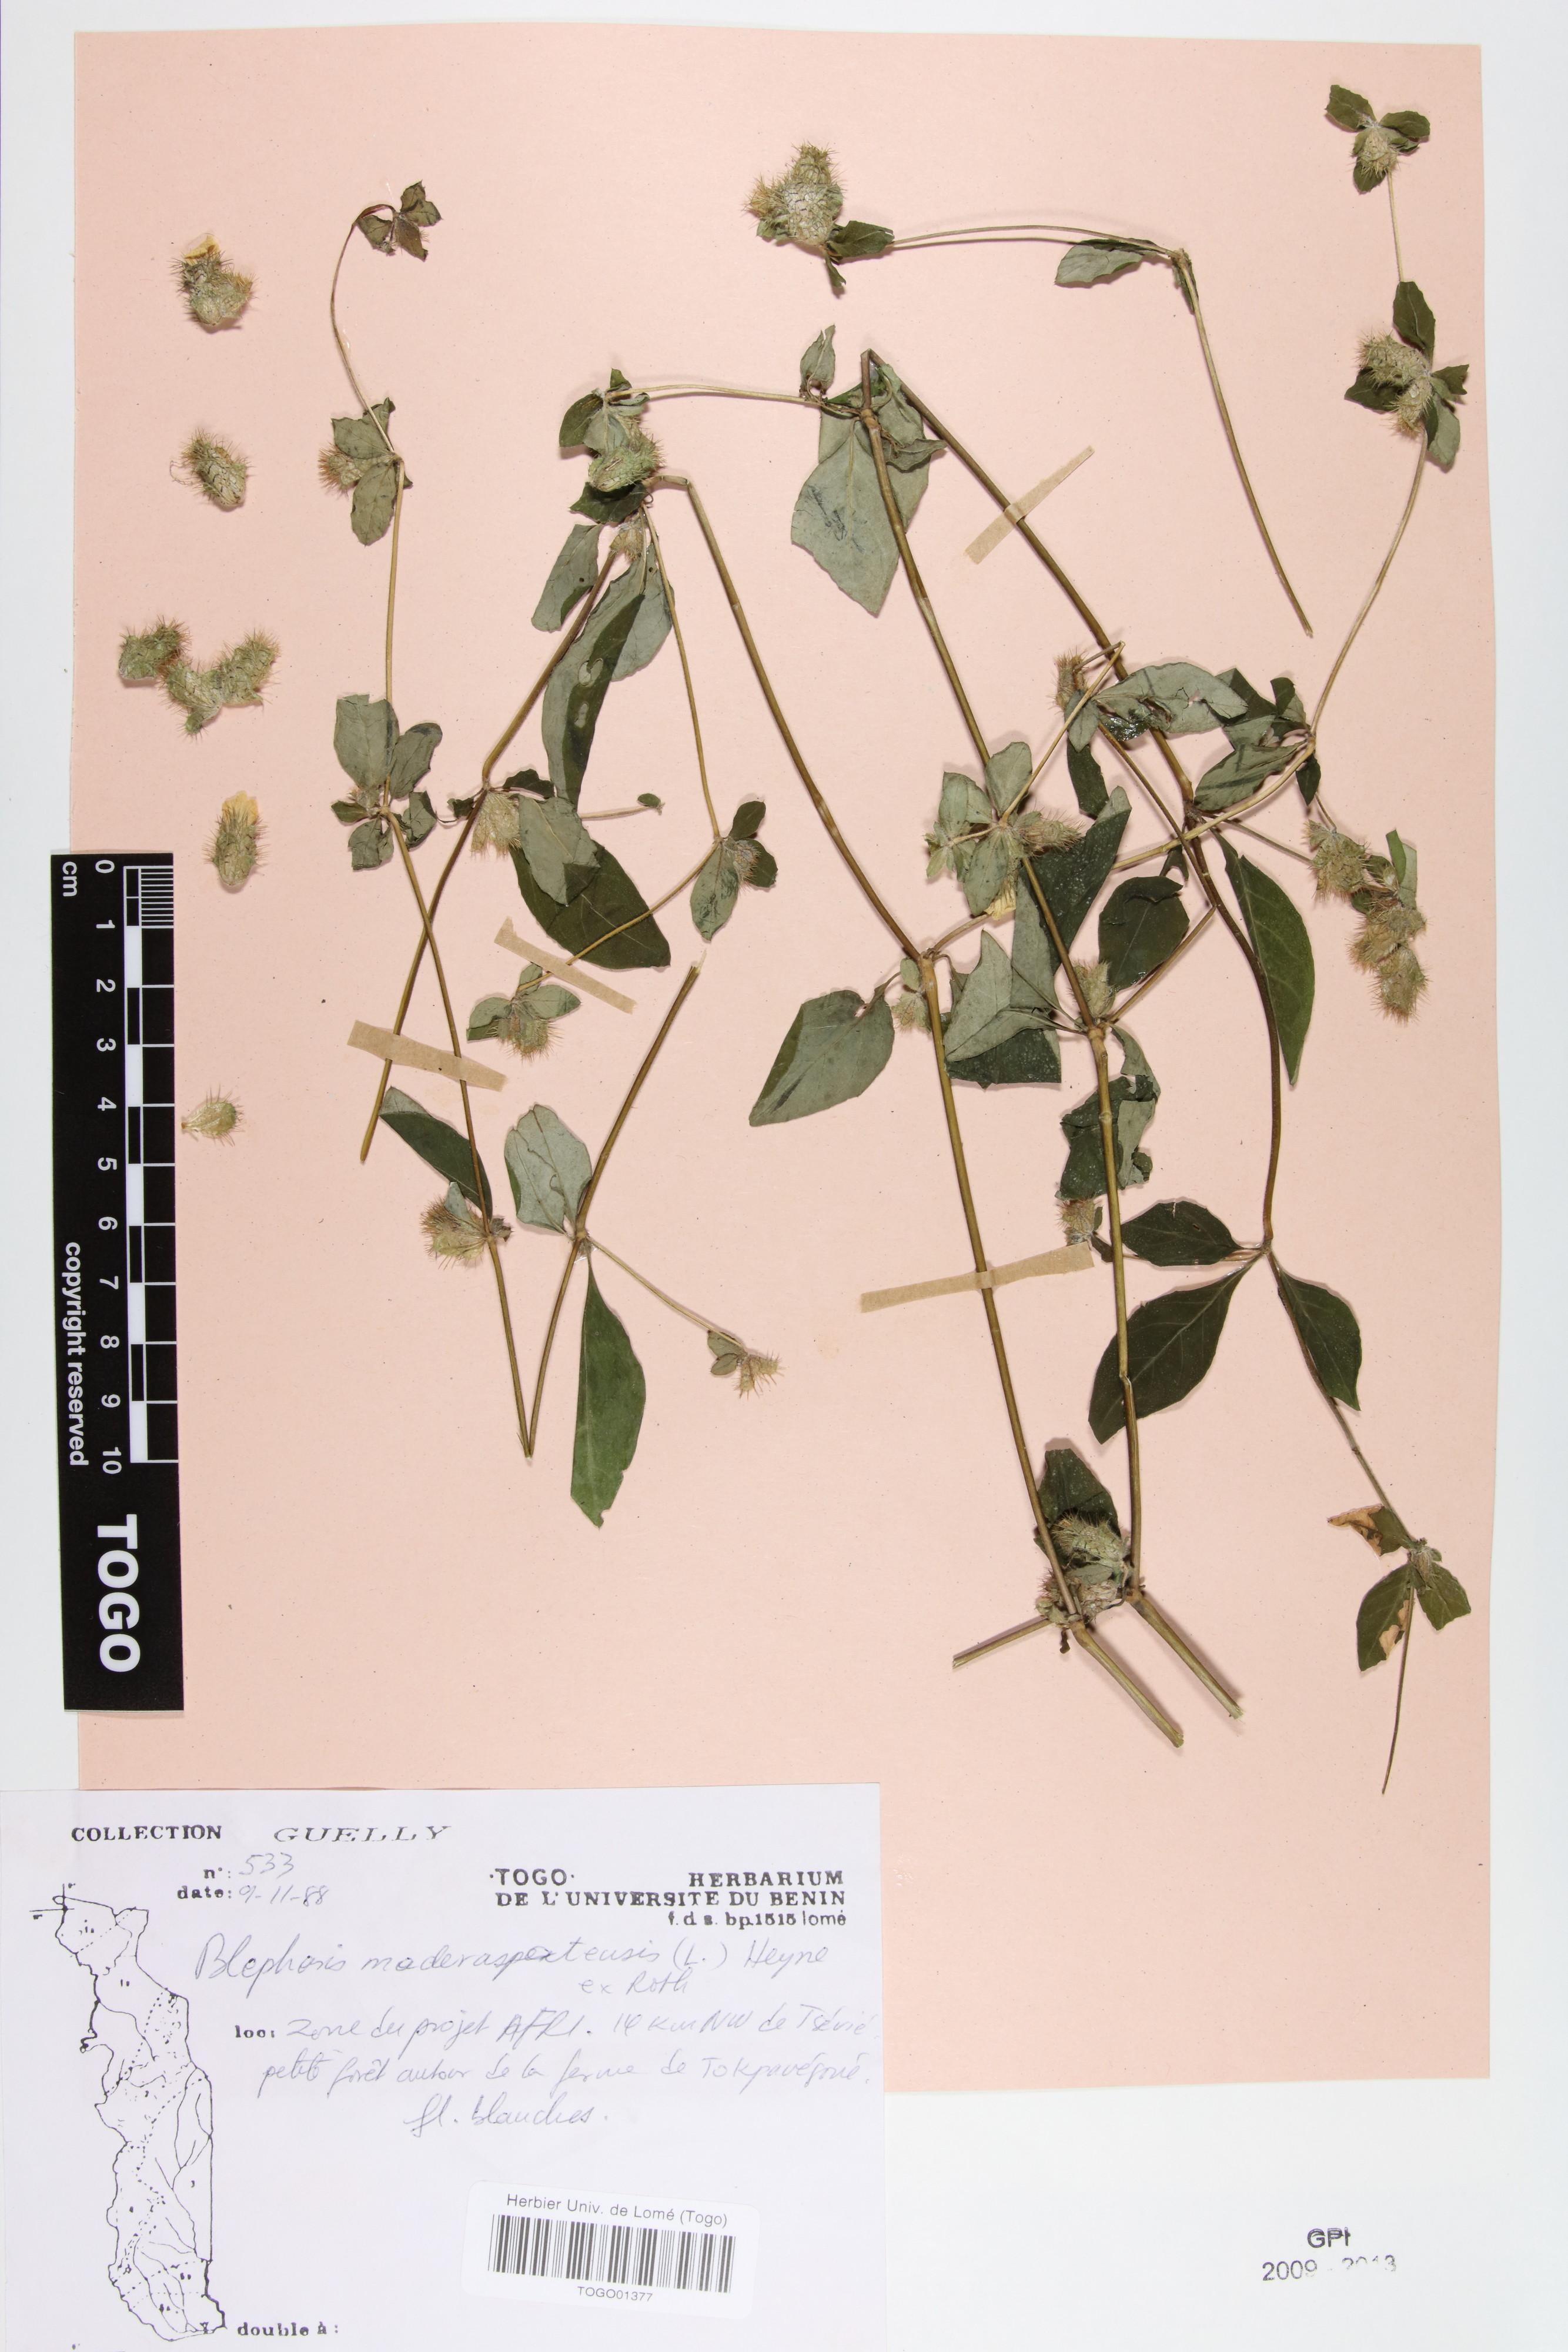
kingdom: Plantae
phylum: Tracheophyta
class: Magnoliopsida
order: Lamiales
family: Acanthaceae
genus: Blepharis
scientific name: Blepharis maderaspatensis
